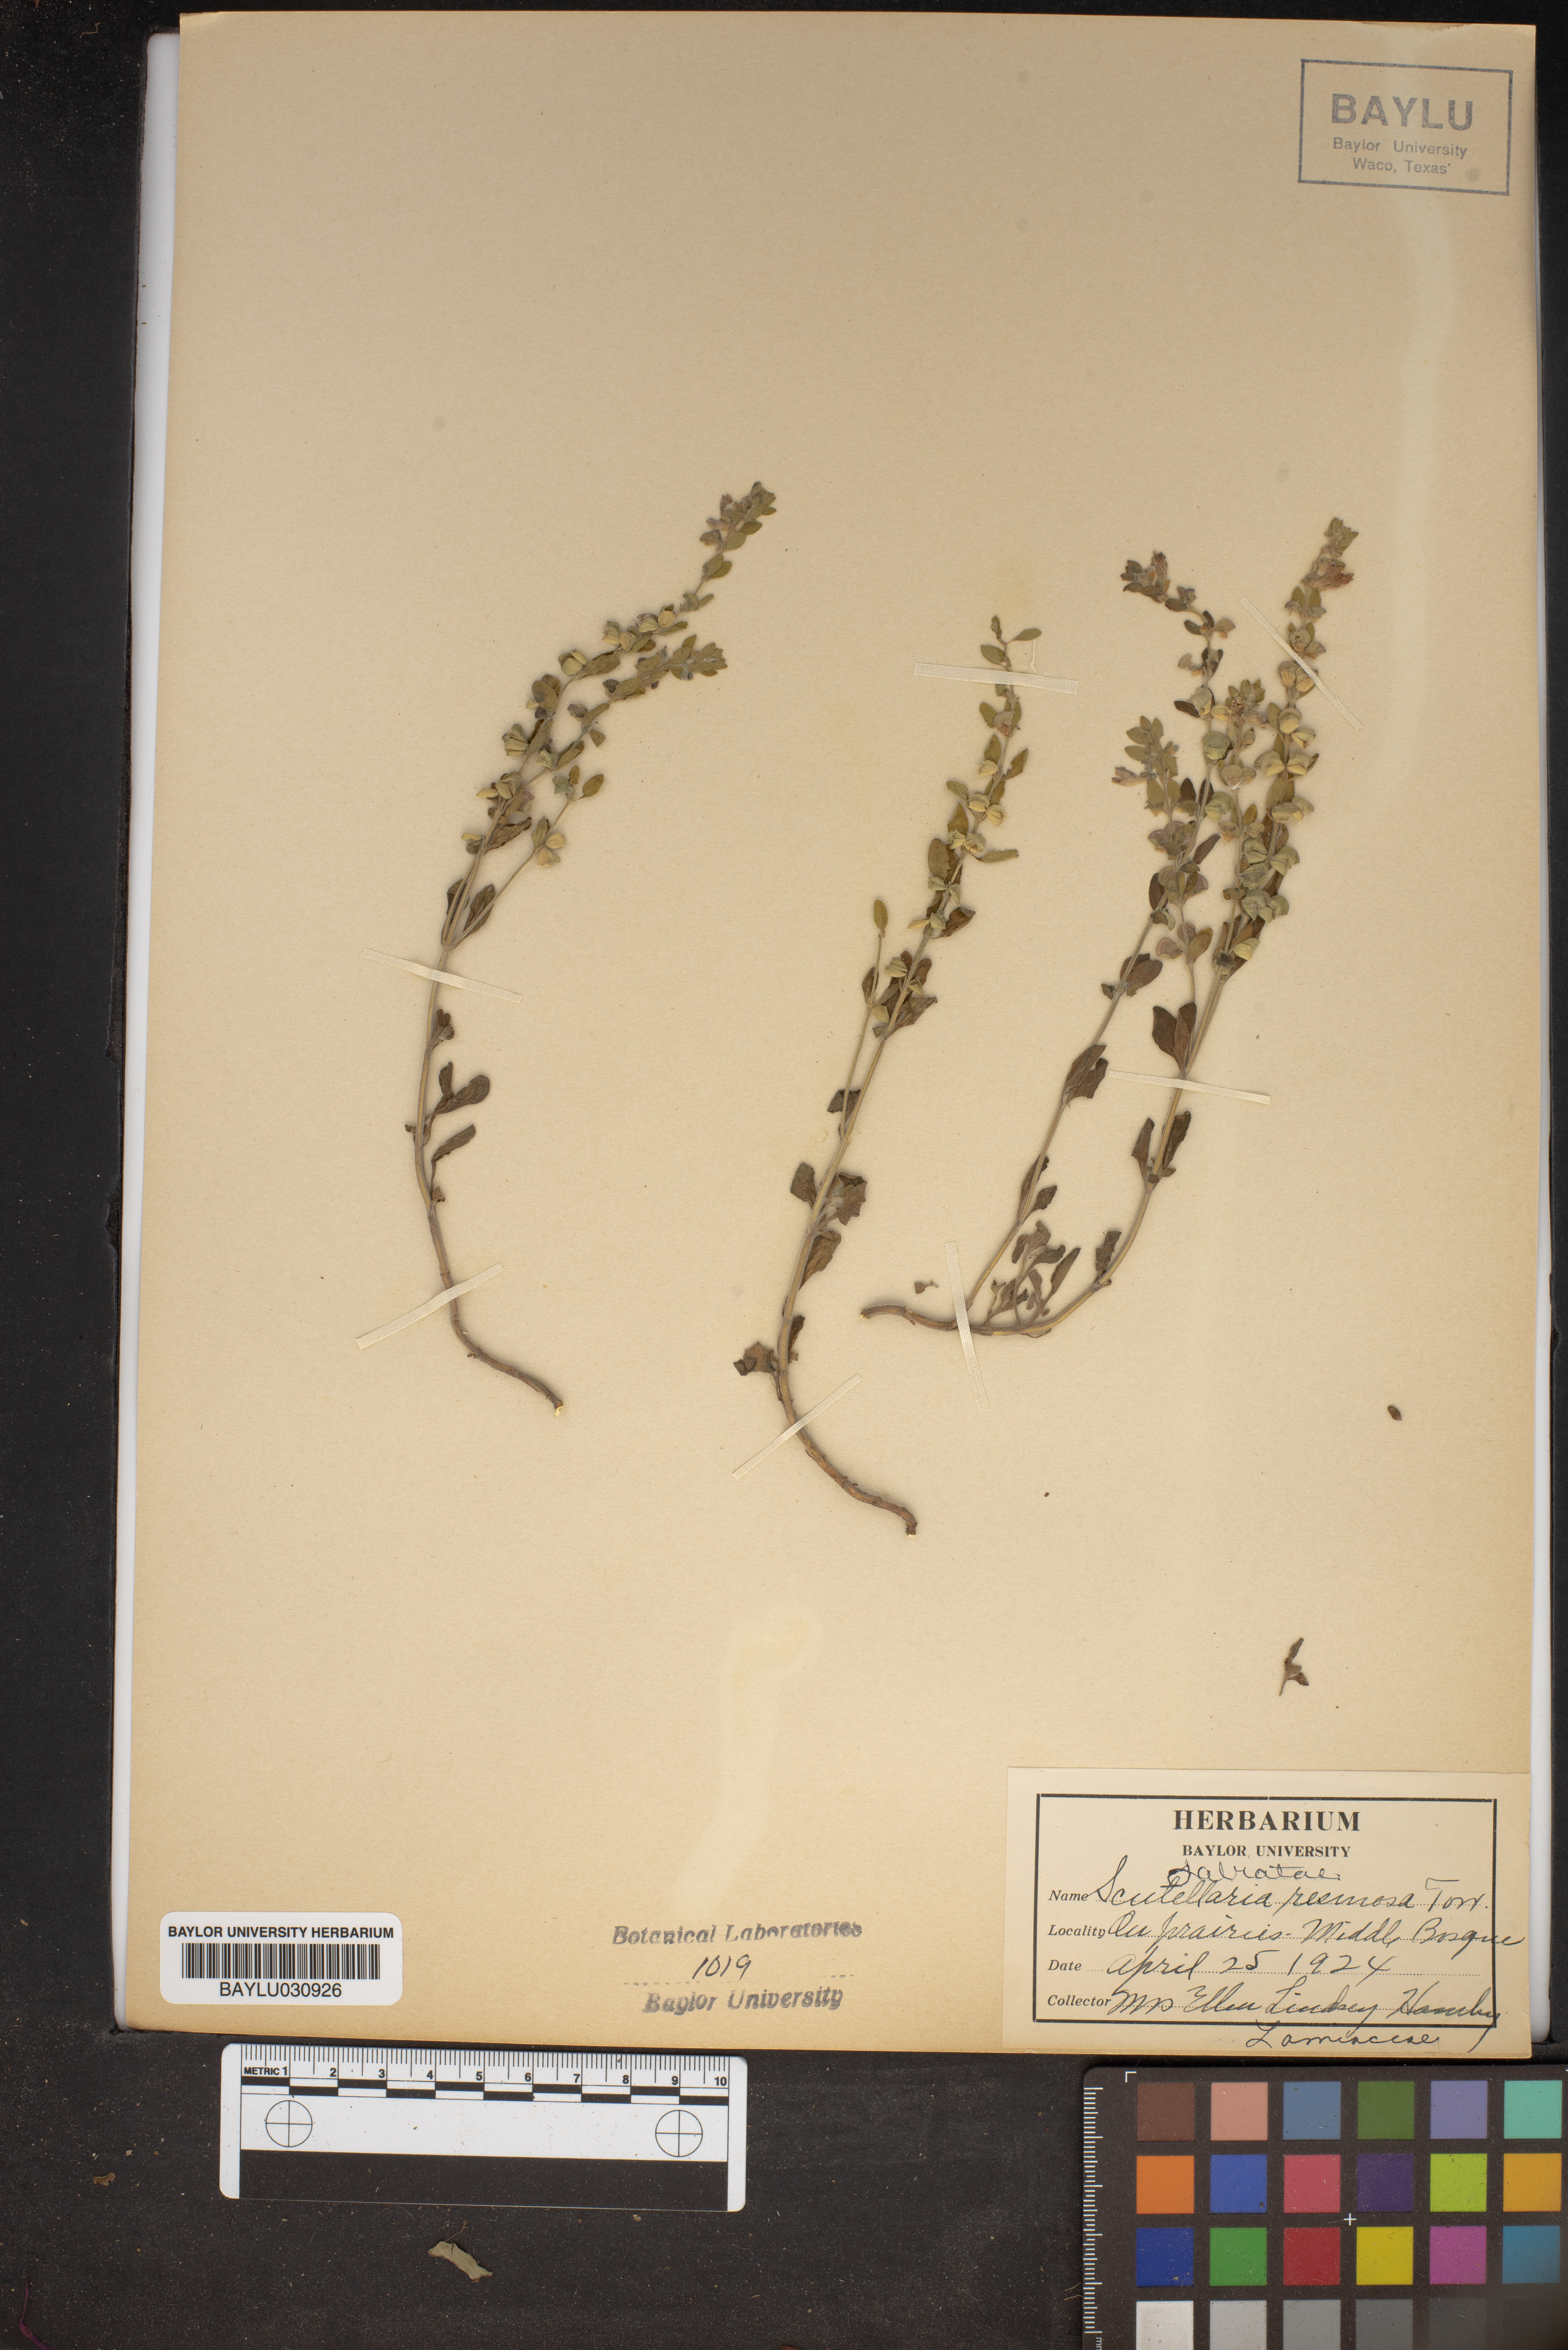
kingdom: Plantae
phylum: Tracheophyta
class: Magnoliopsida
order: Lamiales
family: Lamiaceae
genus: Scutellaria
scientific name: Scutellaria racemosa
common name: South american skullcap
